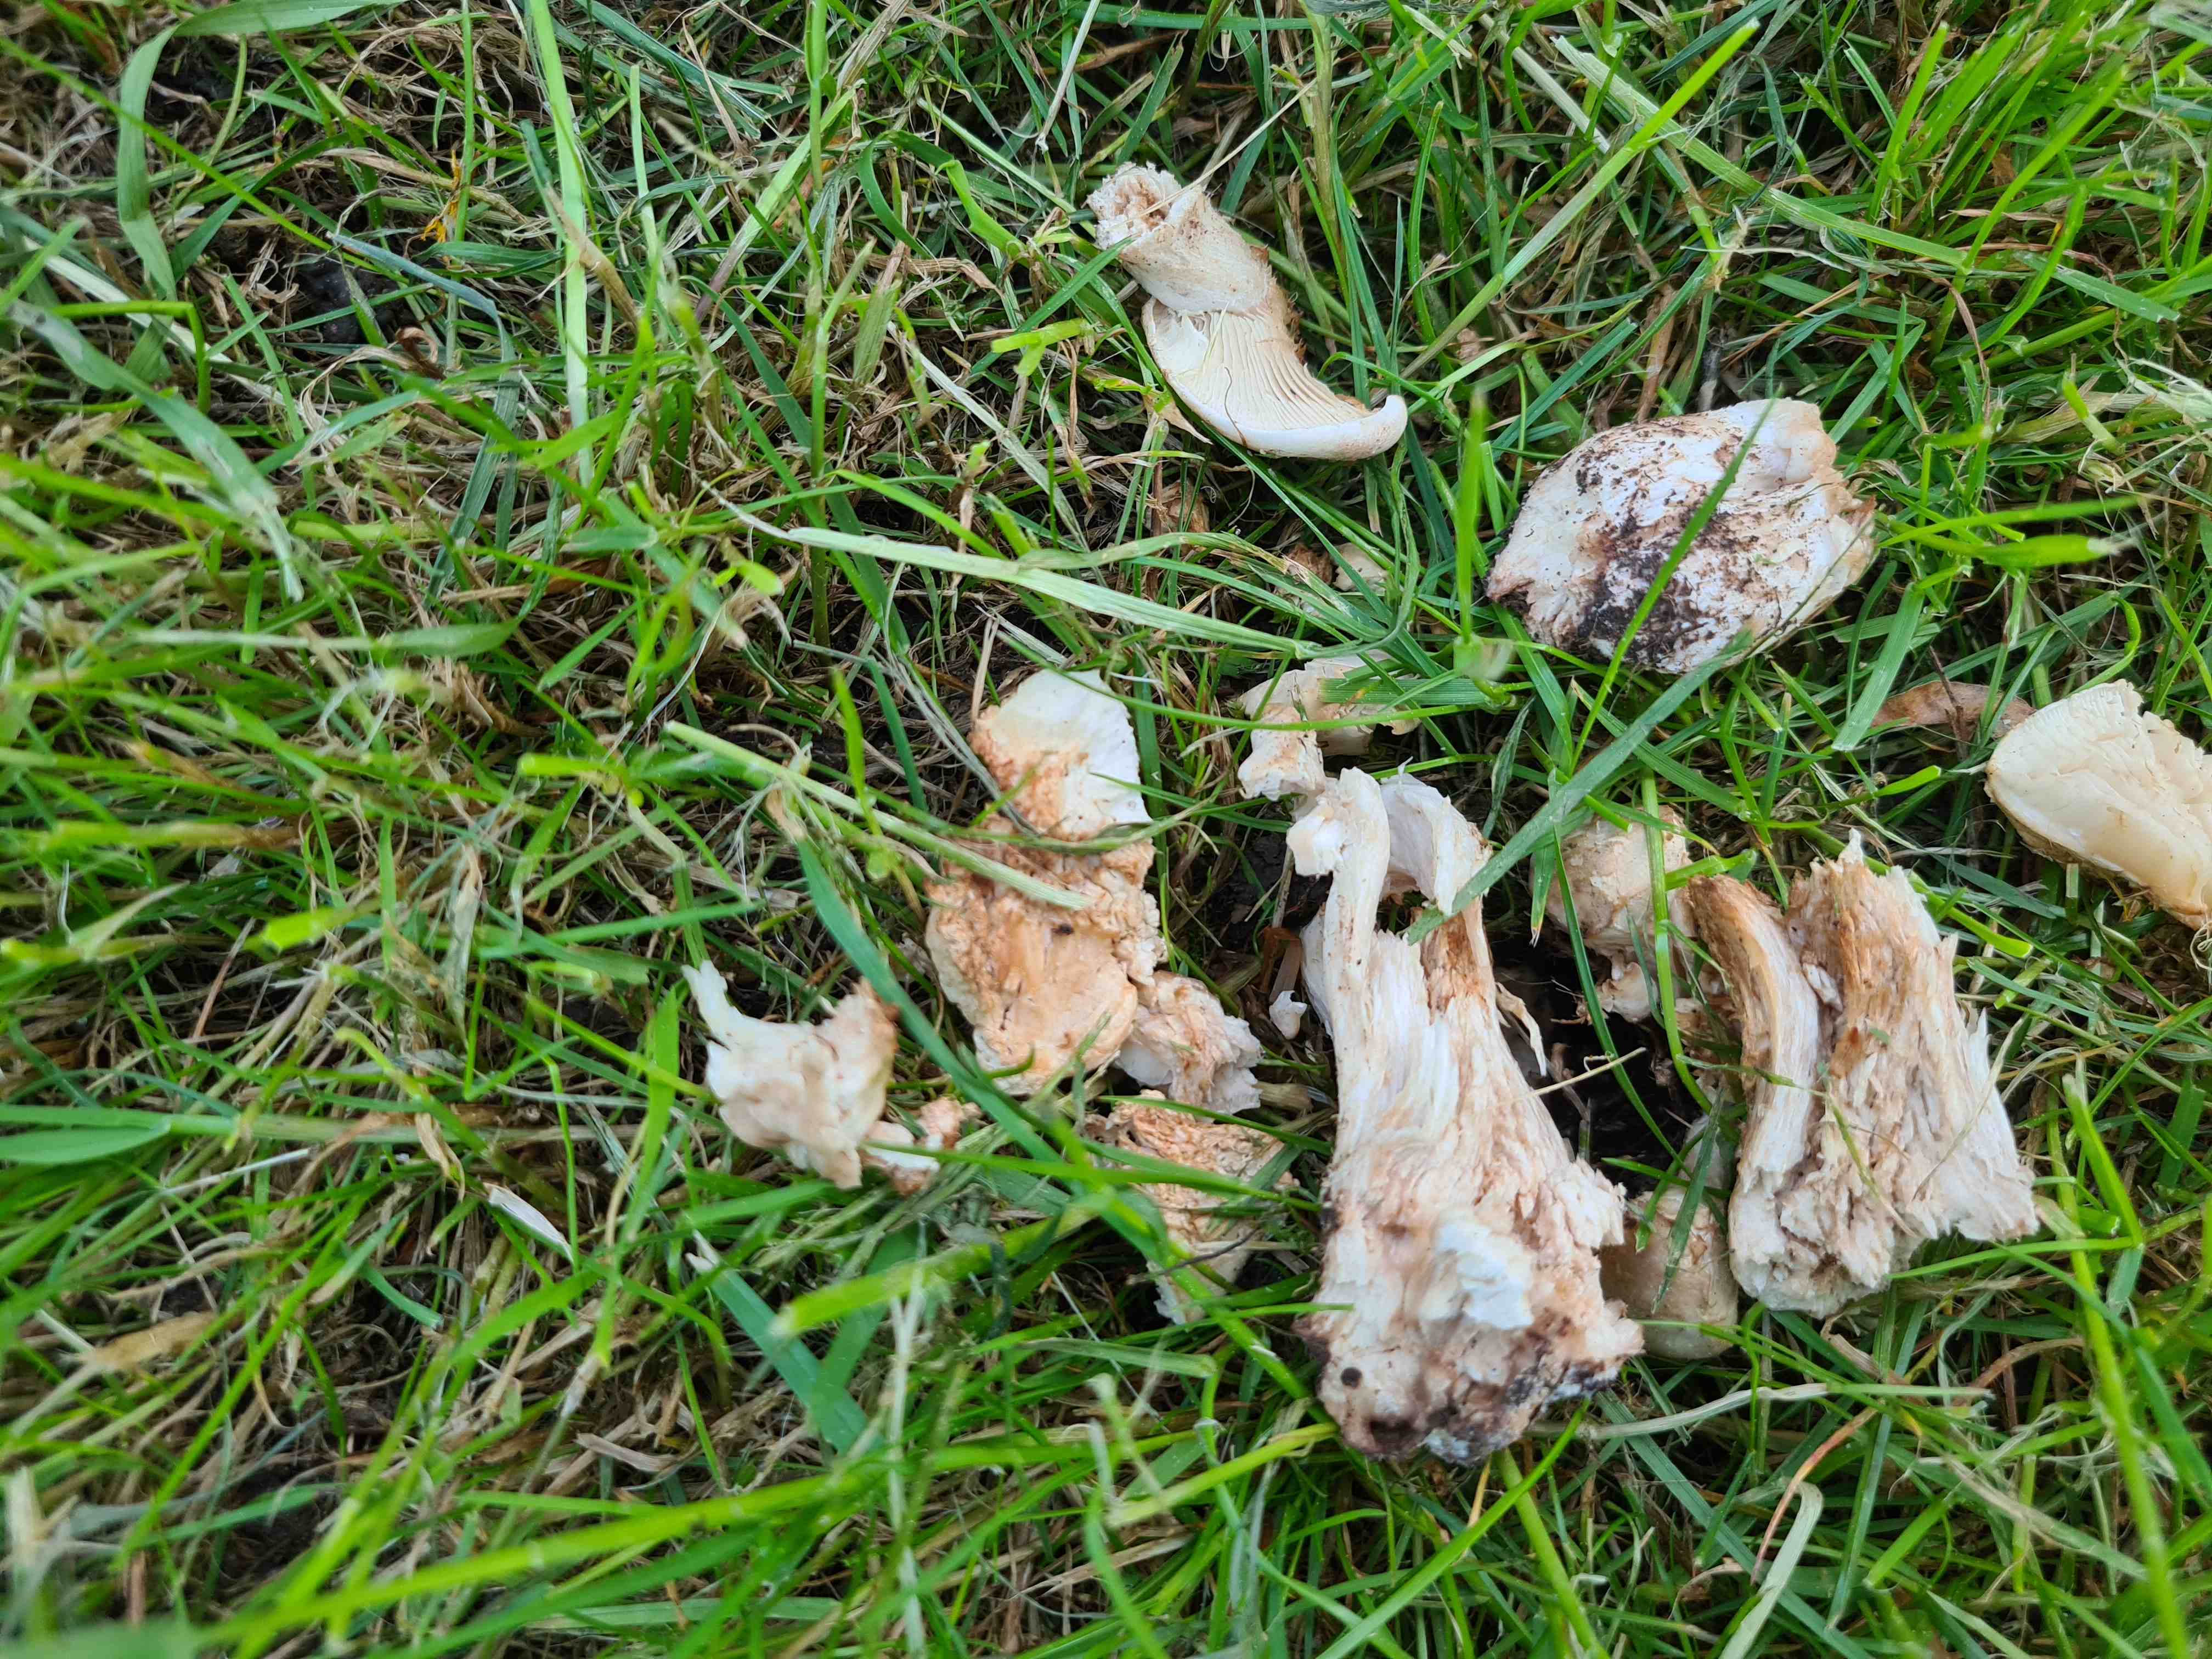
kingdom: Fungi
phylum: Basidiomycota
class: Agaricomycetes
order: Agaricales
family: Lyophyllaceae
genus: Calocybe
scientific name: Calocybe gambosa
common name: vårmusseron
